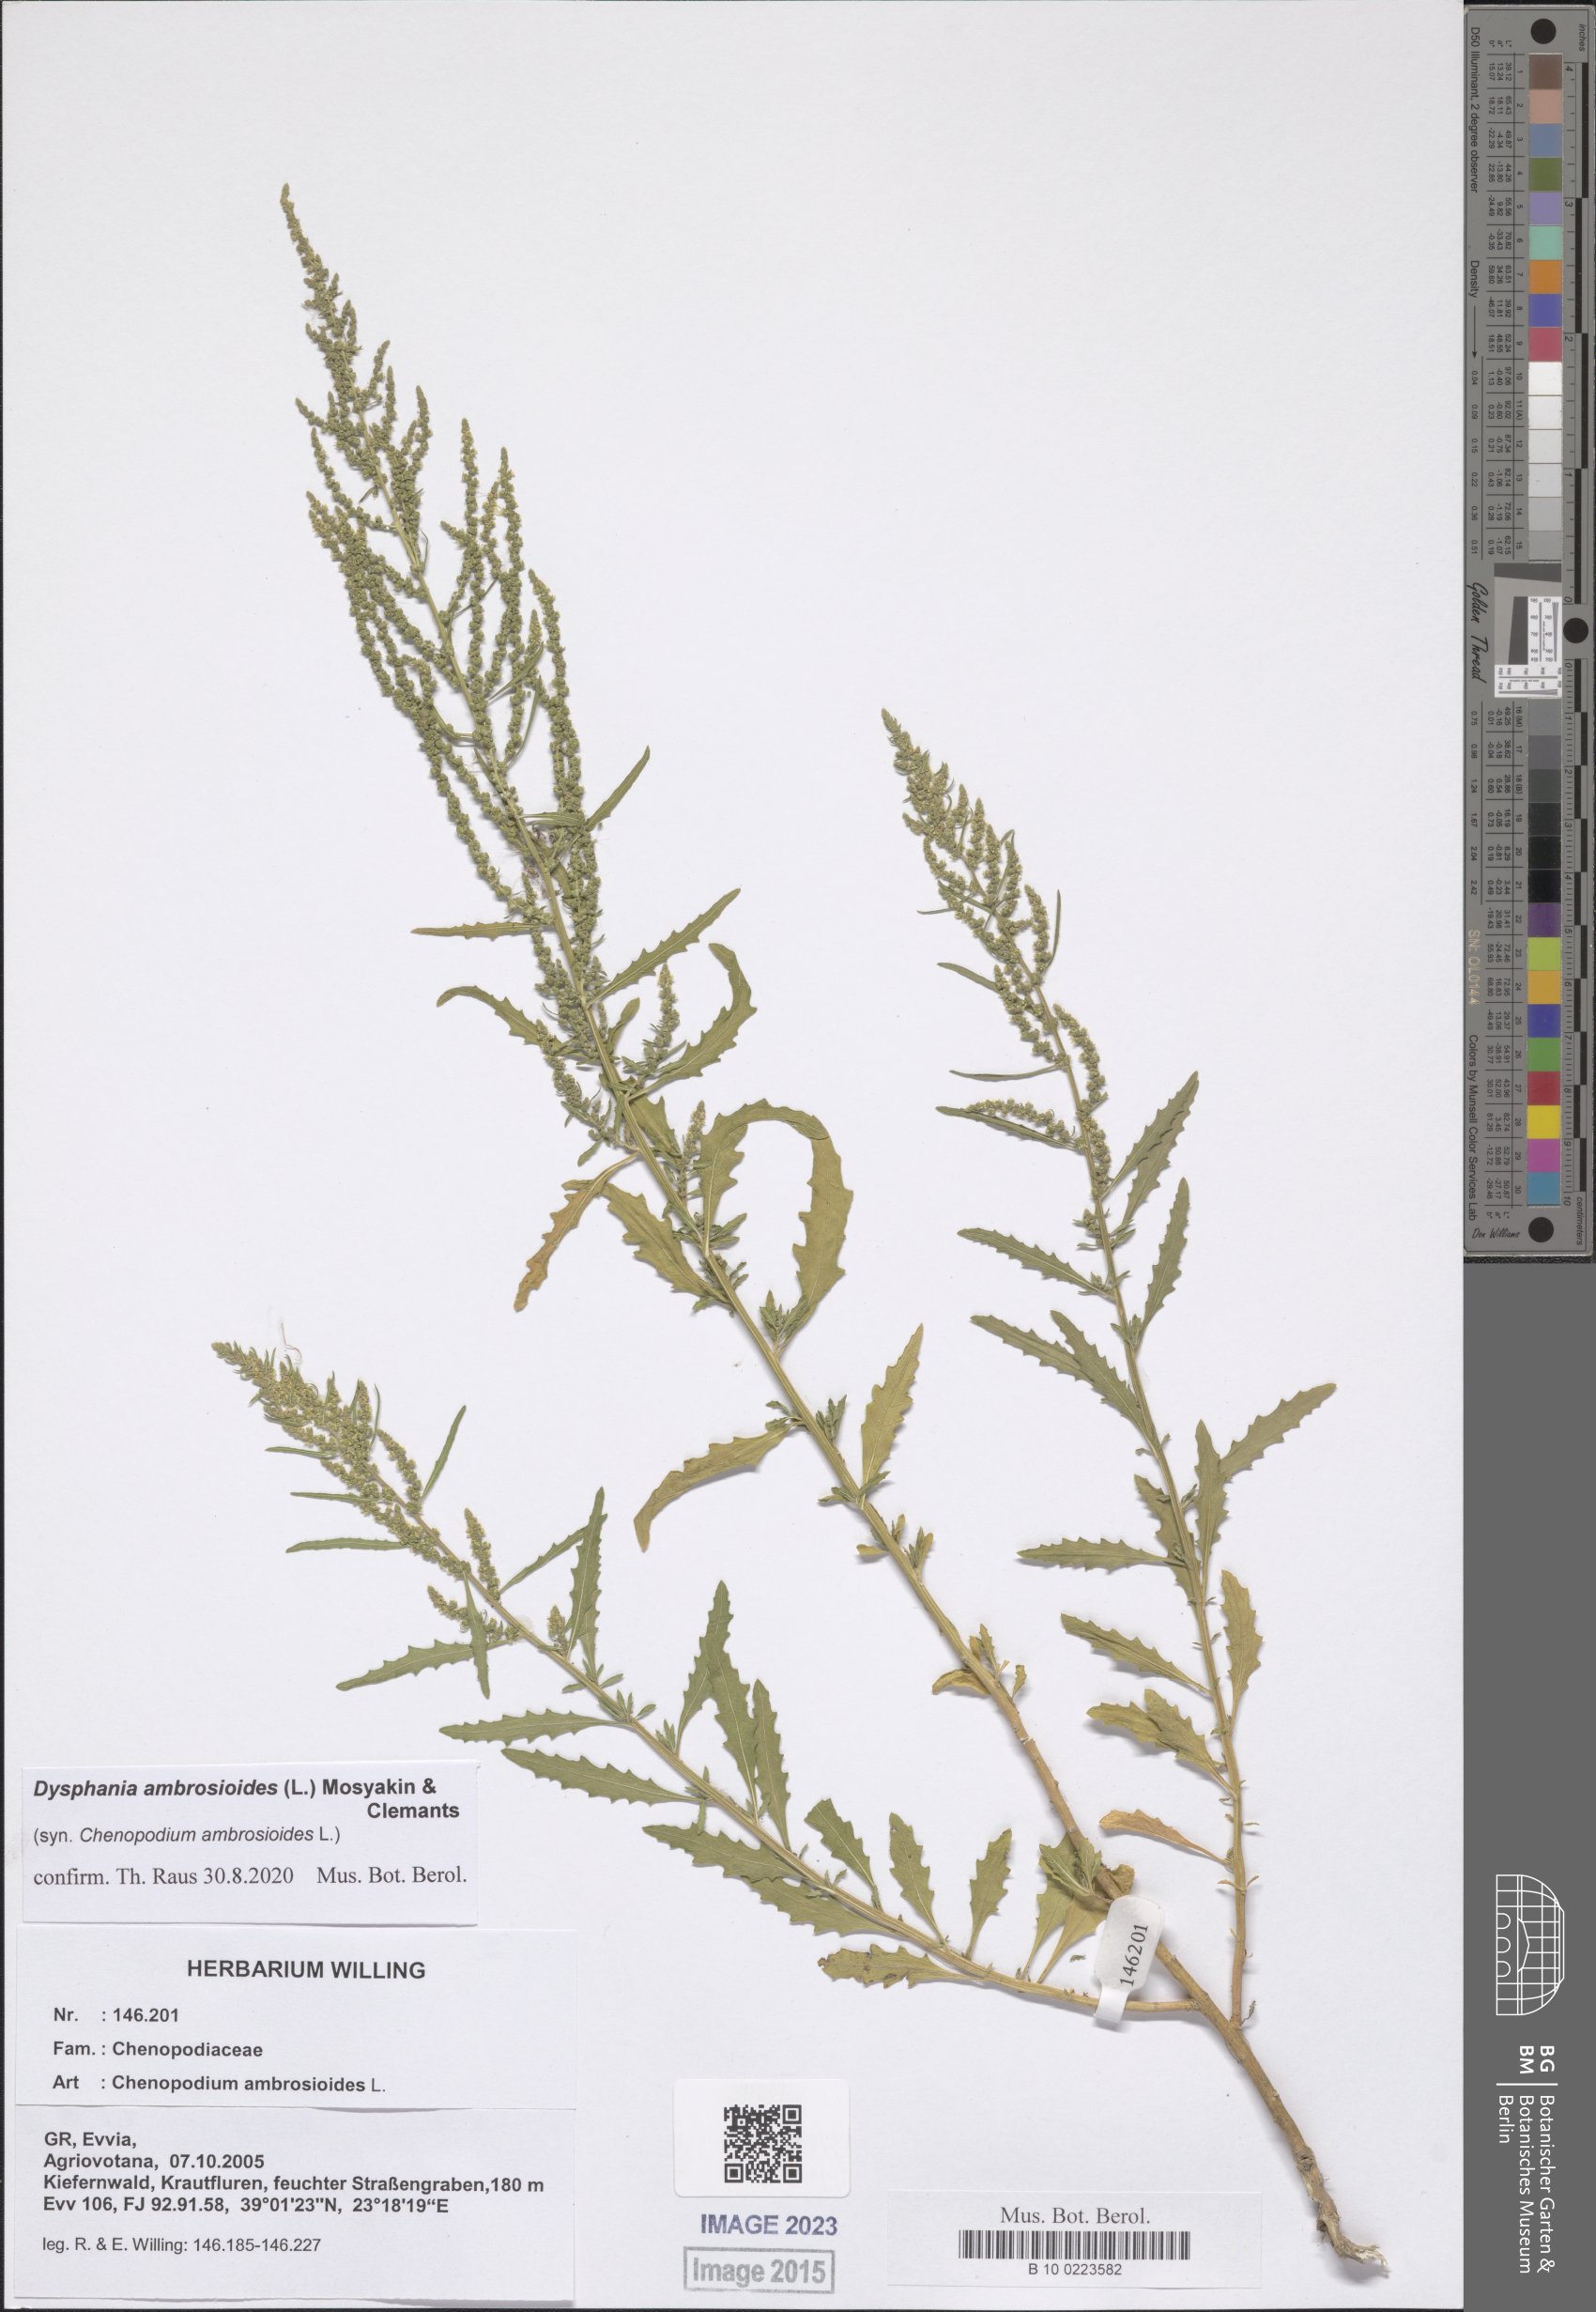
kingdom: Plantae
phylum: Tracheophyta
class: Magnoliopsida
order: Caryophyllales
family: Amaranthaceae
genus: Dysphania
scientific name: Dysphania ambrosioides
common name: Wormseed
